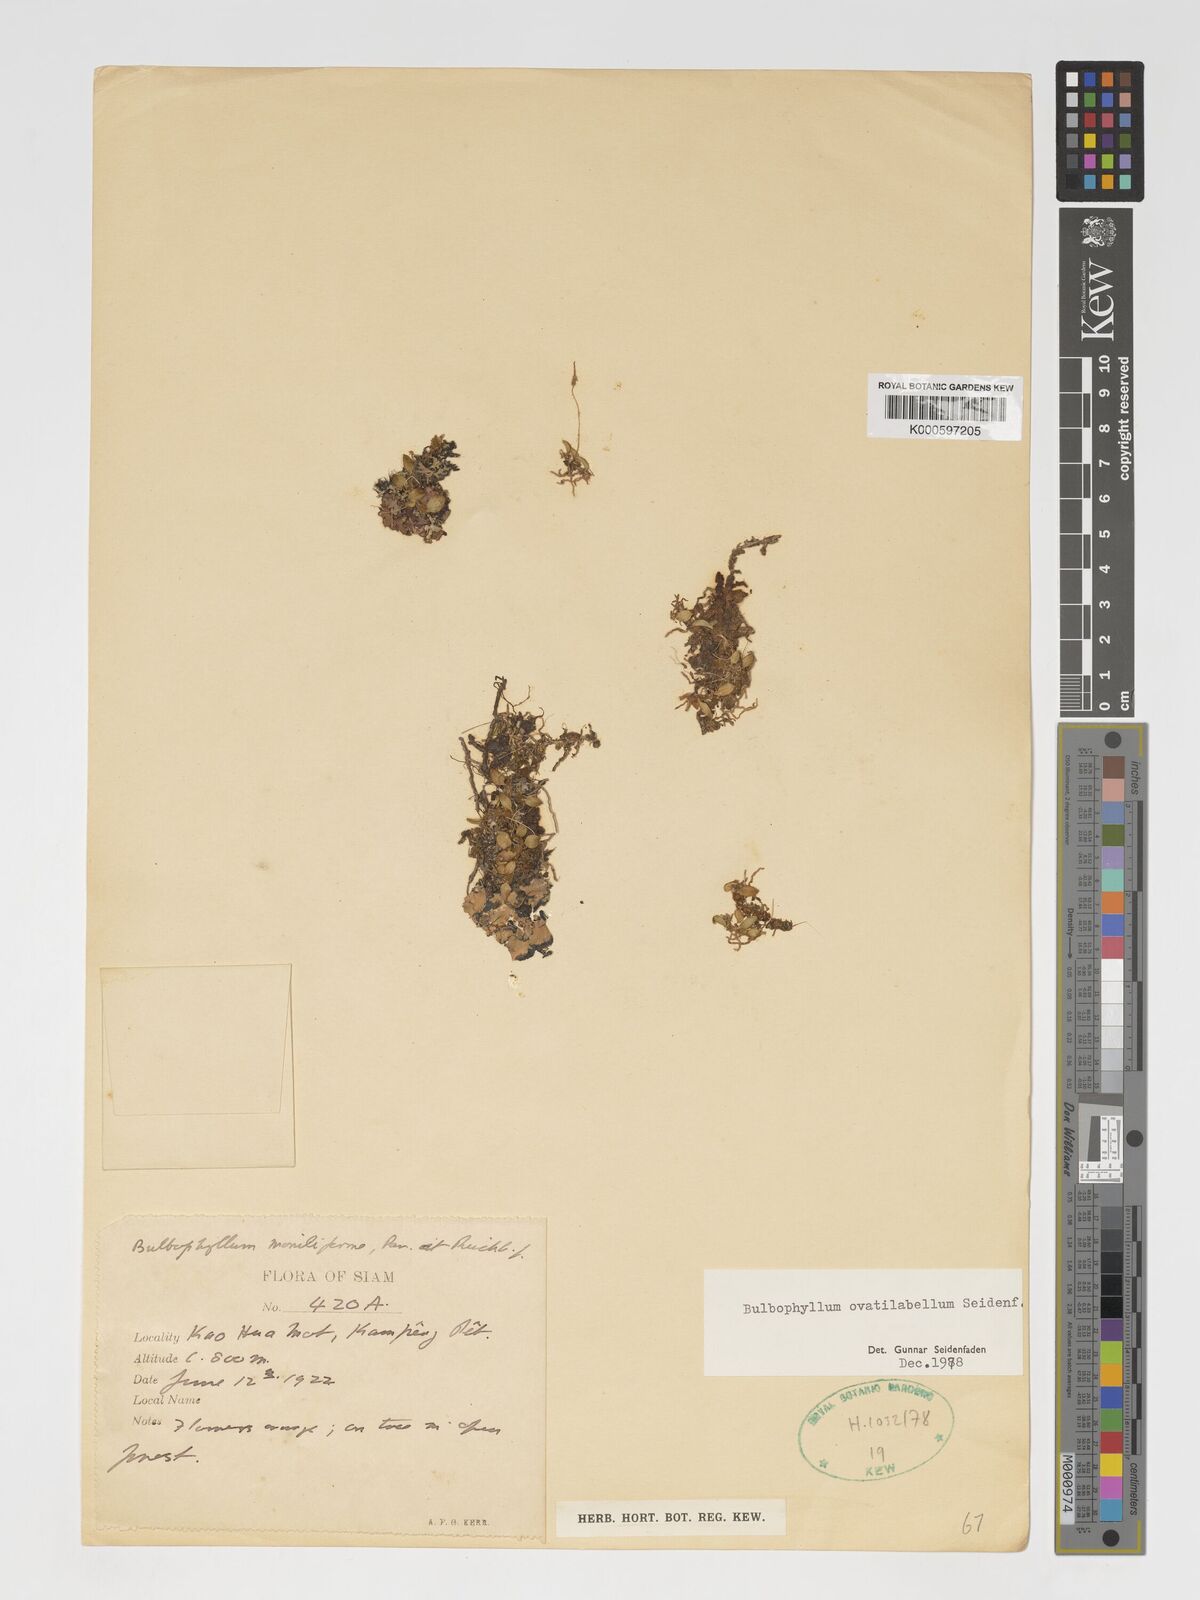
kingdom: Plantae
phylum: Tracheophyta
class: Liliopsida
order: Asparagales
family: Orchidaceae
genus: Bulbophyllum
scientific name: Bulbophyllum ovalifolium
